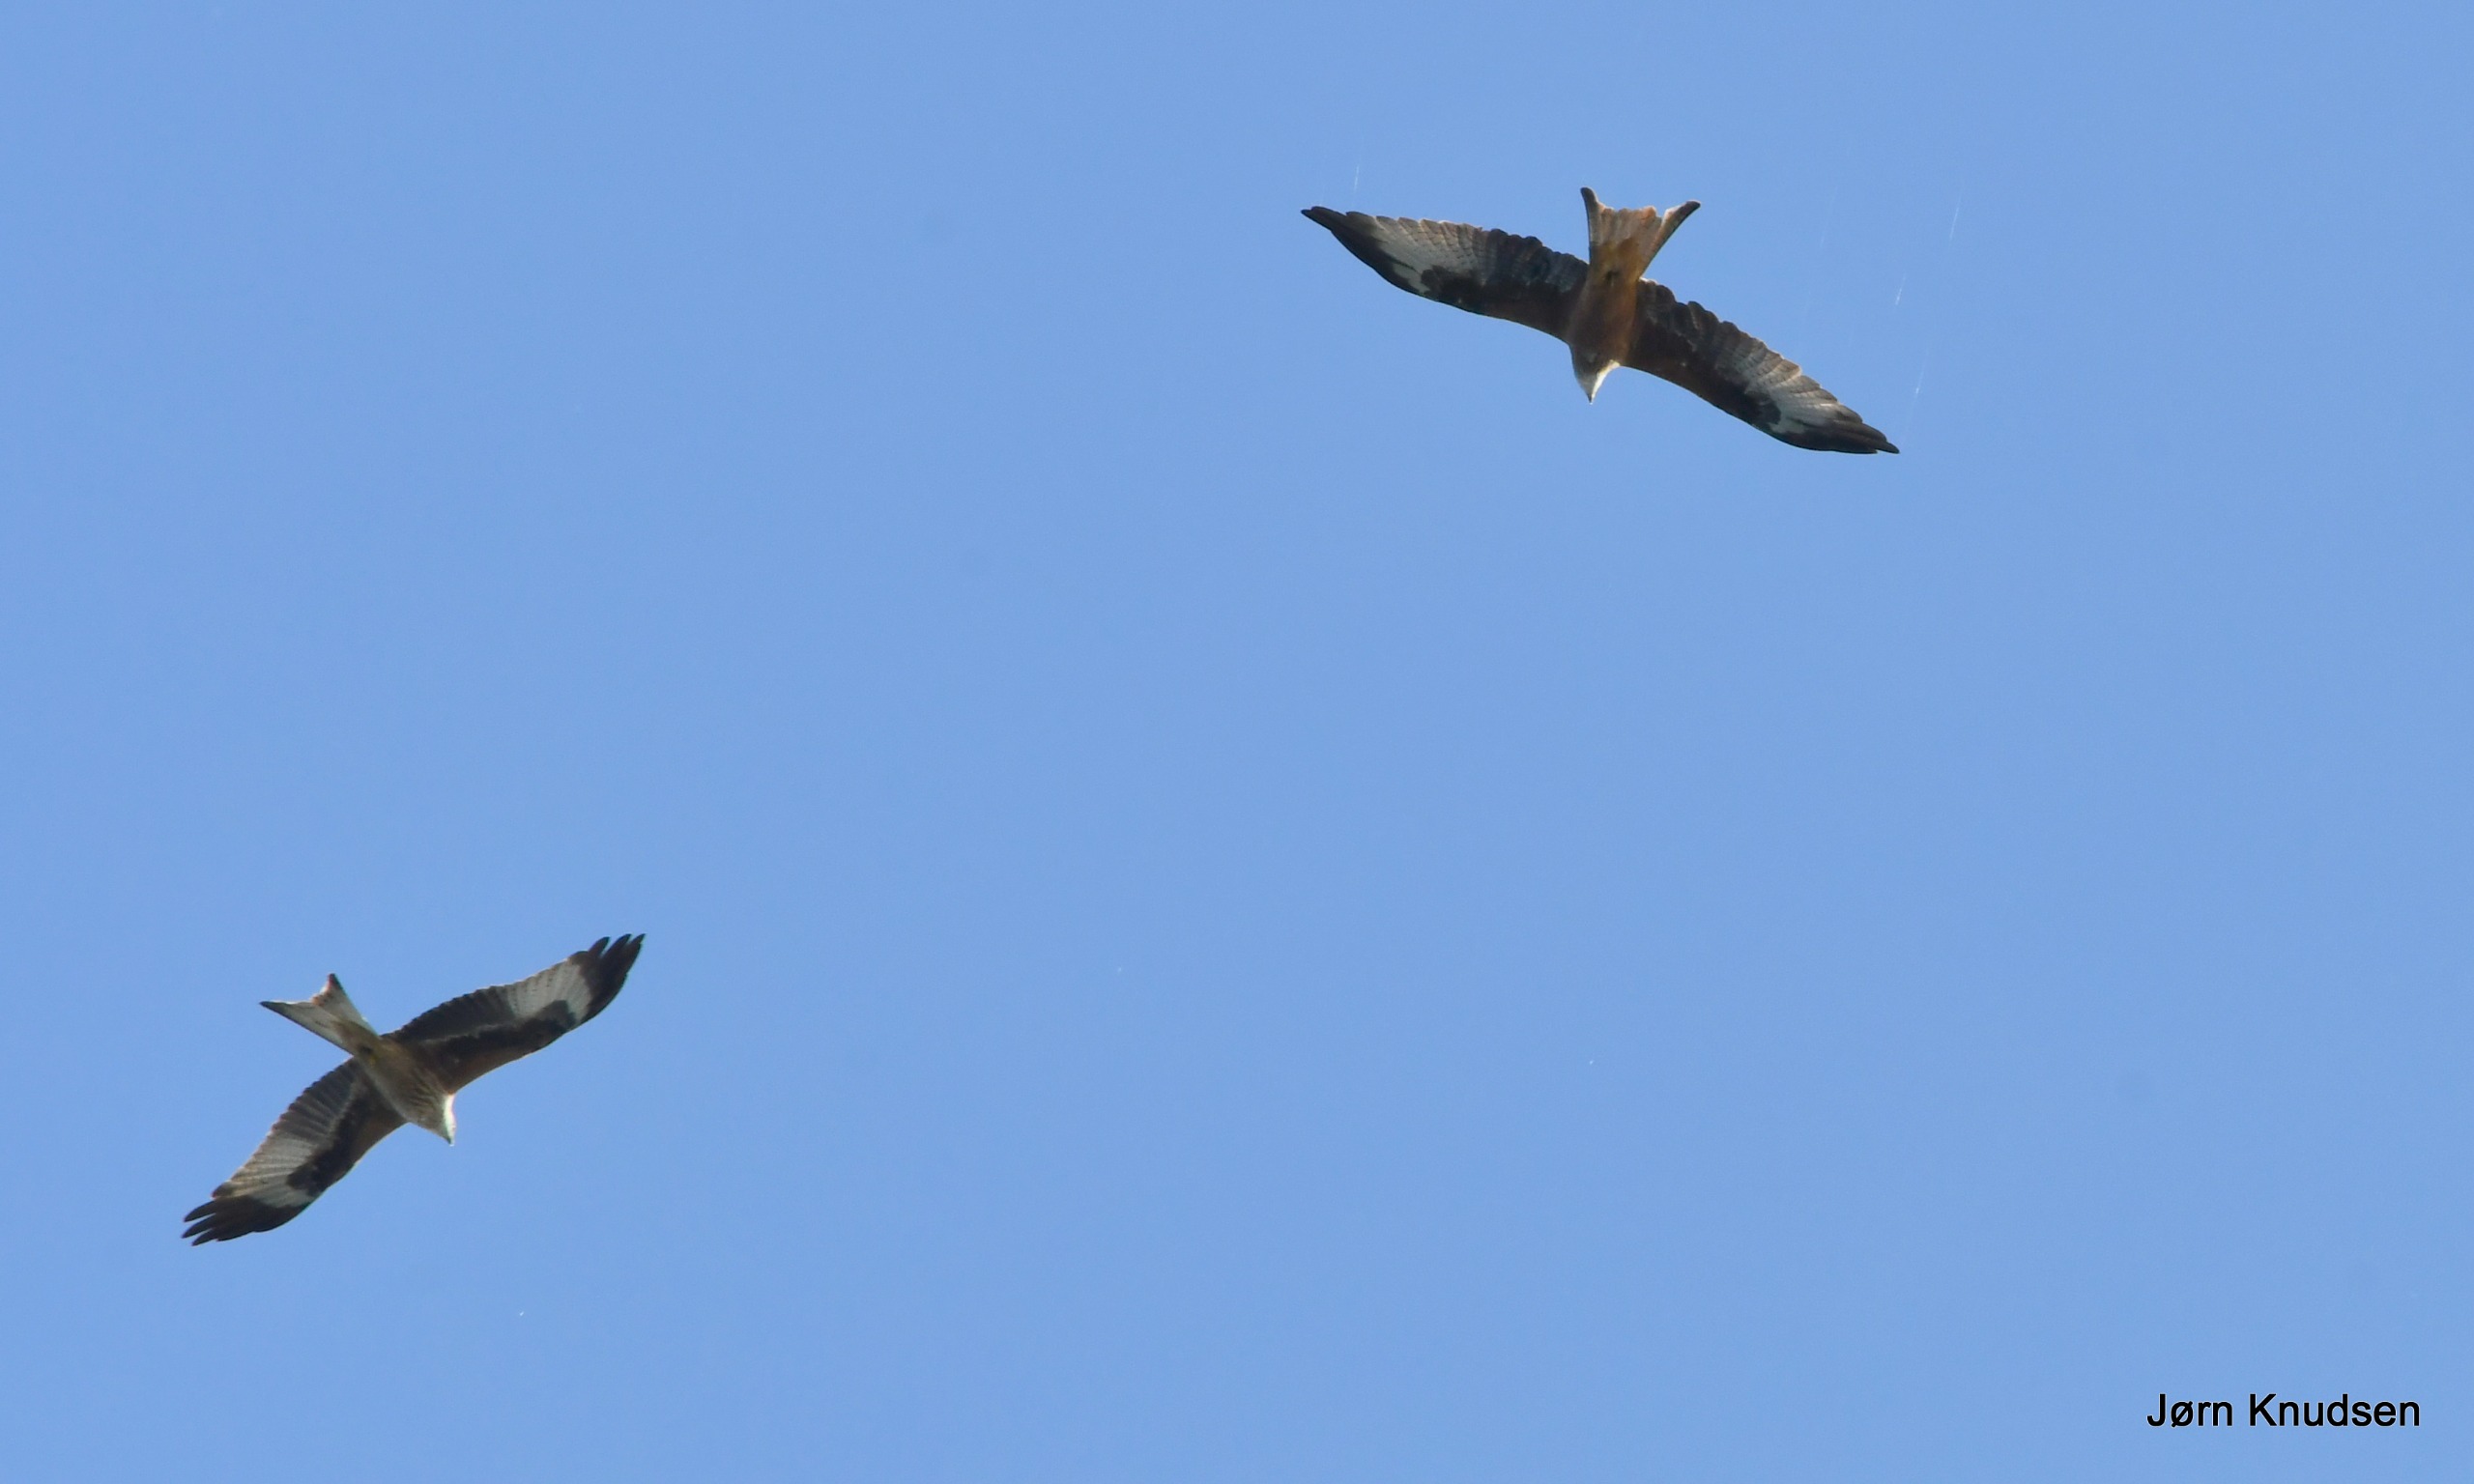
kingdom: Animalia
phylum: Chordata
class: Aves
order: Accipitriformes
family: Accipitridae
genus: Milvus
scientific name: Milvus milvus
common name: Rød glente
